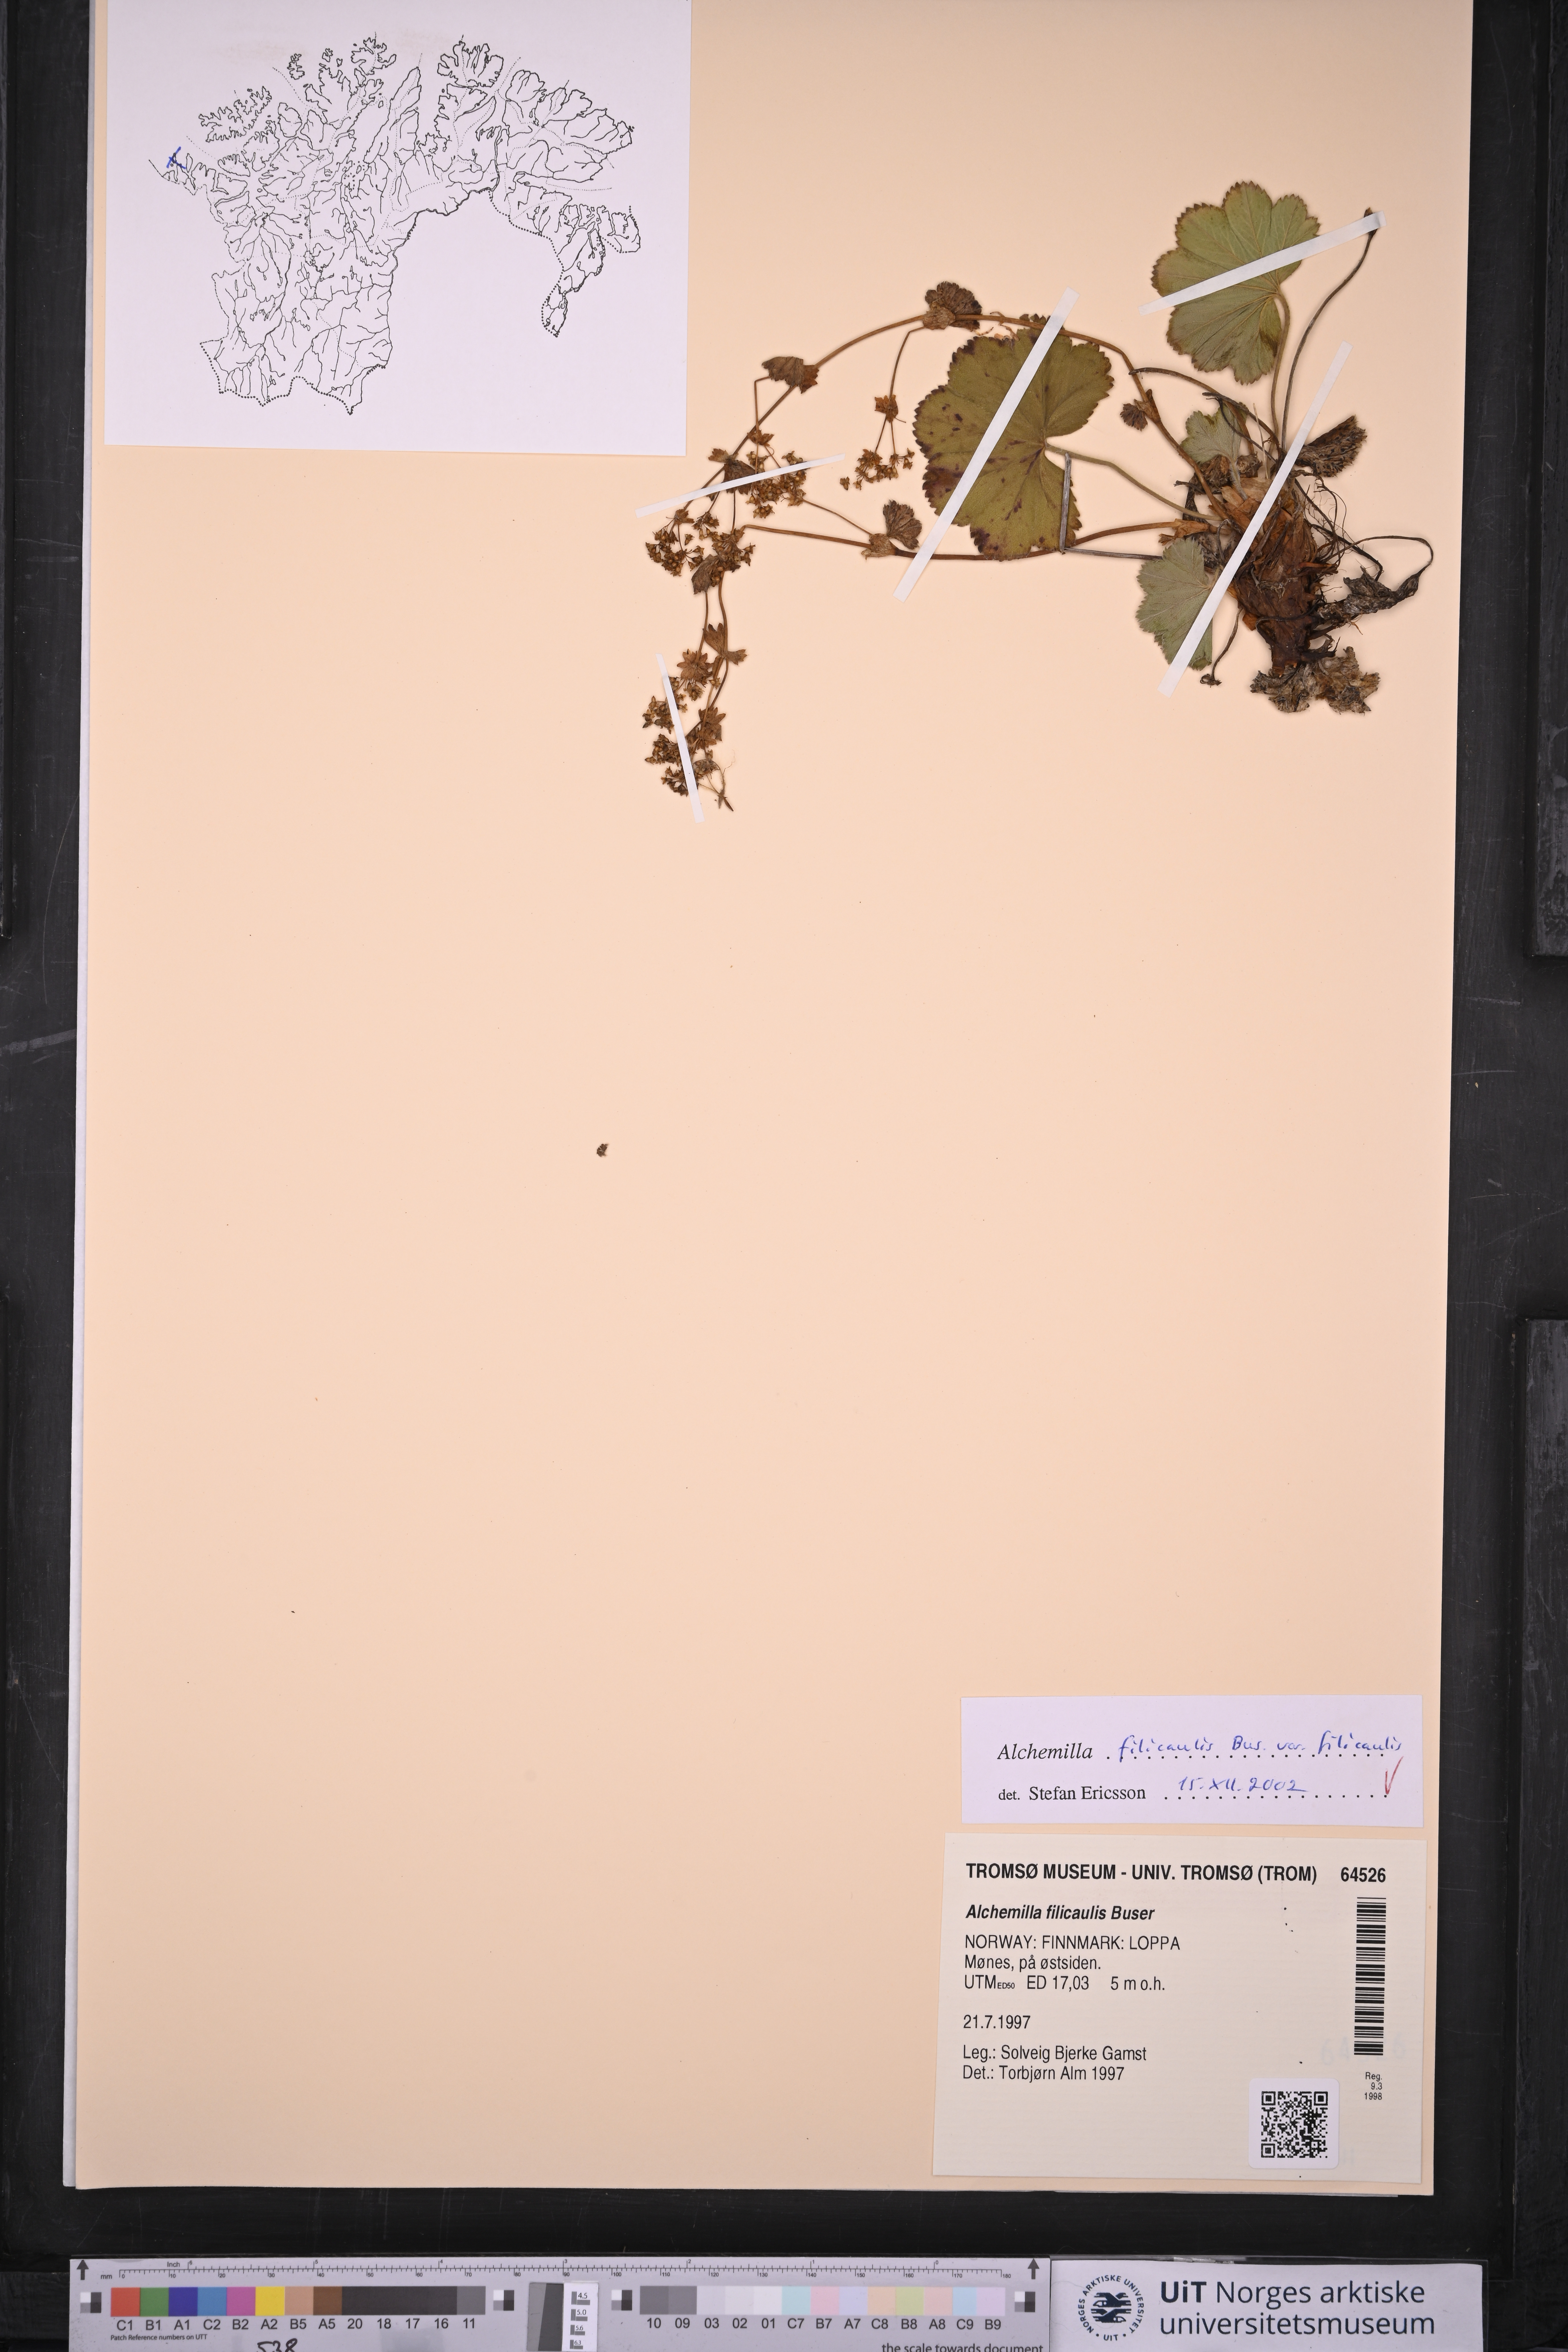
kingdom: Plantae
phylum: Tracheophyta
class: Magnoliopsida
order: Rosales
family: Rosaceae
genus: Alchemilla
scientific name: Alchemilla filicaulis
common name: Hairy lady's-mantle
